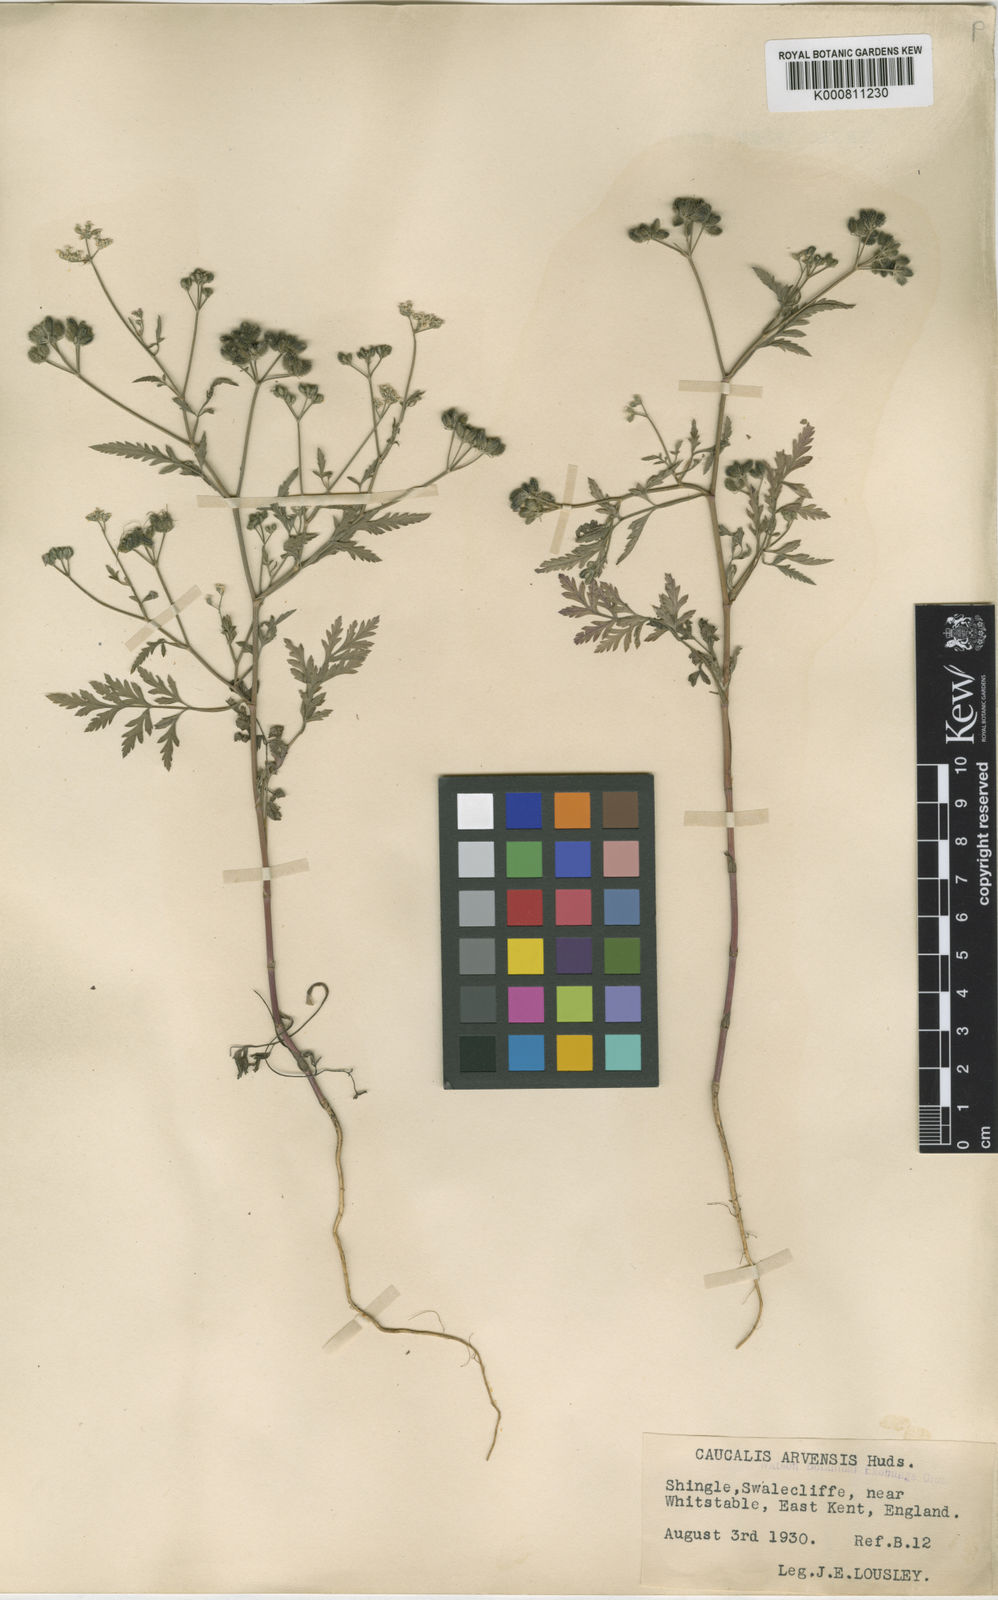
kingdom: Plantae
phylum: Tracheophyta
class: Magnoliopsida
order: Apiales
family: Apiaceae
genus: Torilis
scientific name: Torilis arvensis
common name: Spreading hedge-parsley
